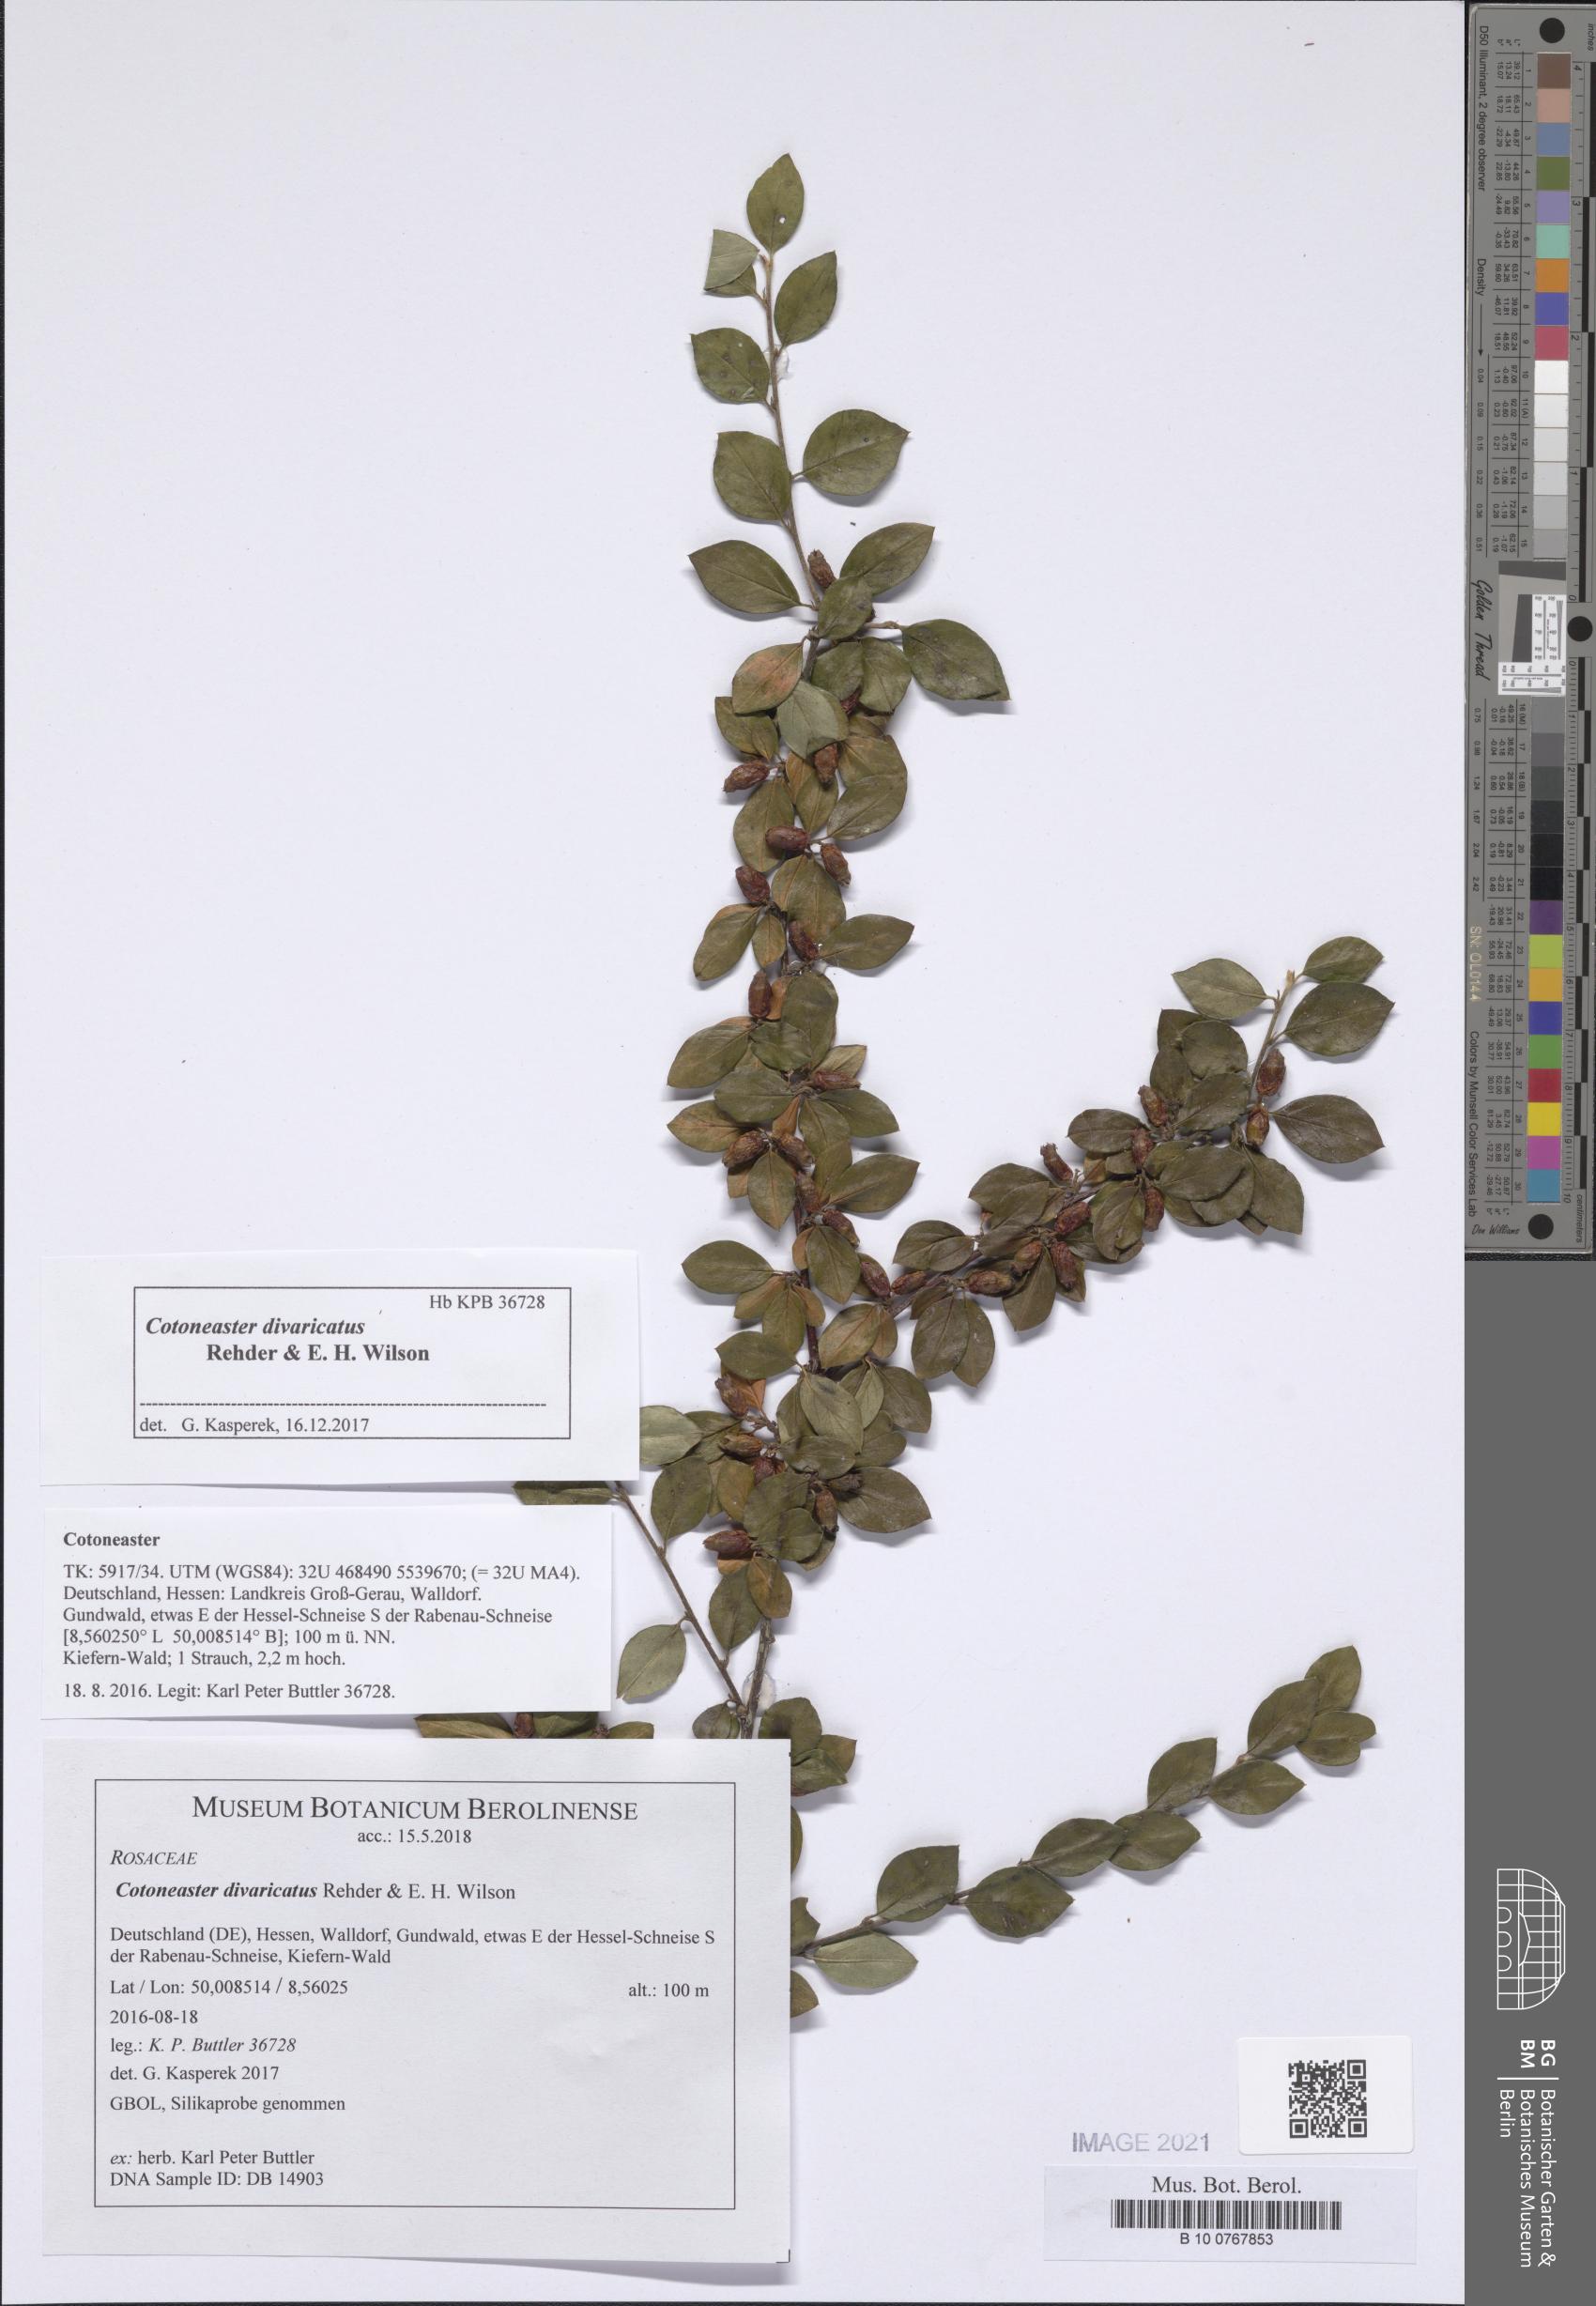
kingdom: Plantae
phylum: Tracheophyta
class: Magnoliopsida
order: Rosales
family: Rosaceae
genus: Cotoneaster
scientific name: Cotoneaster divaricatus
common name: Spreading cotoneaster
